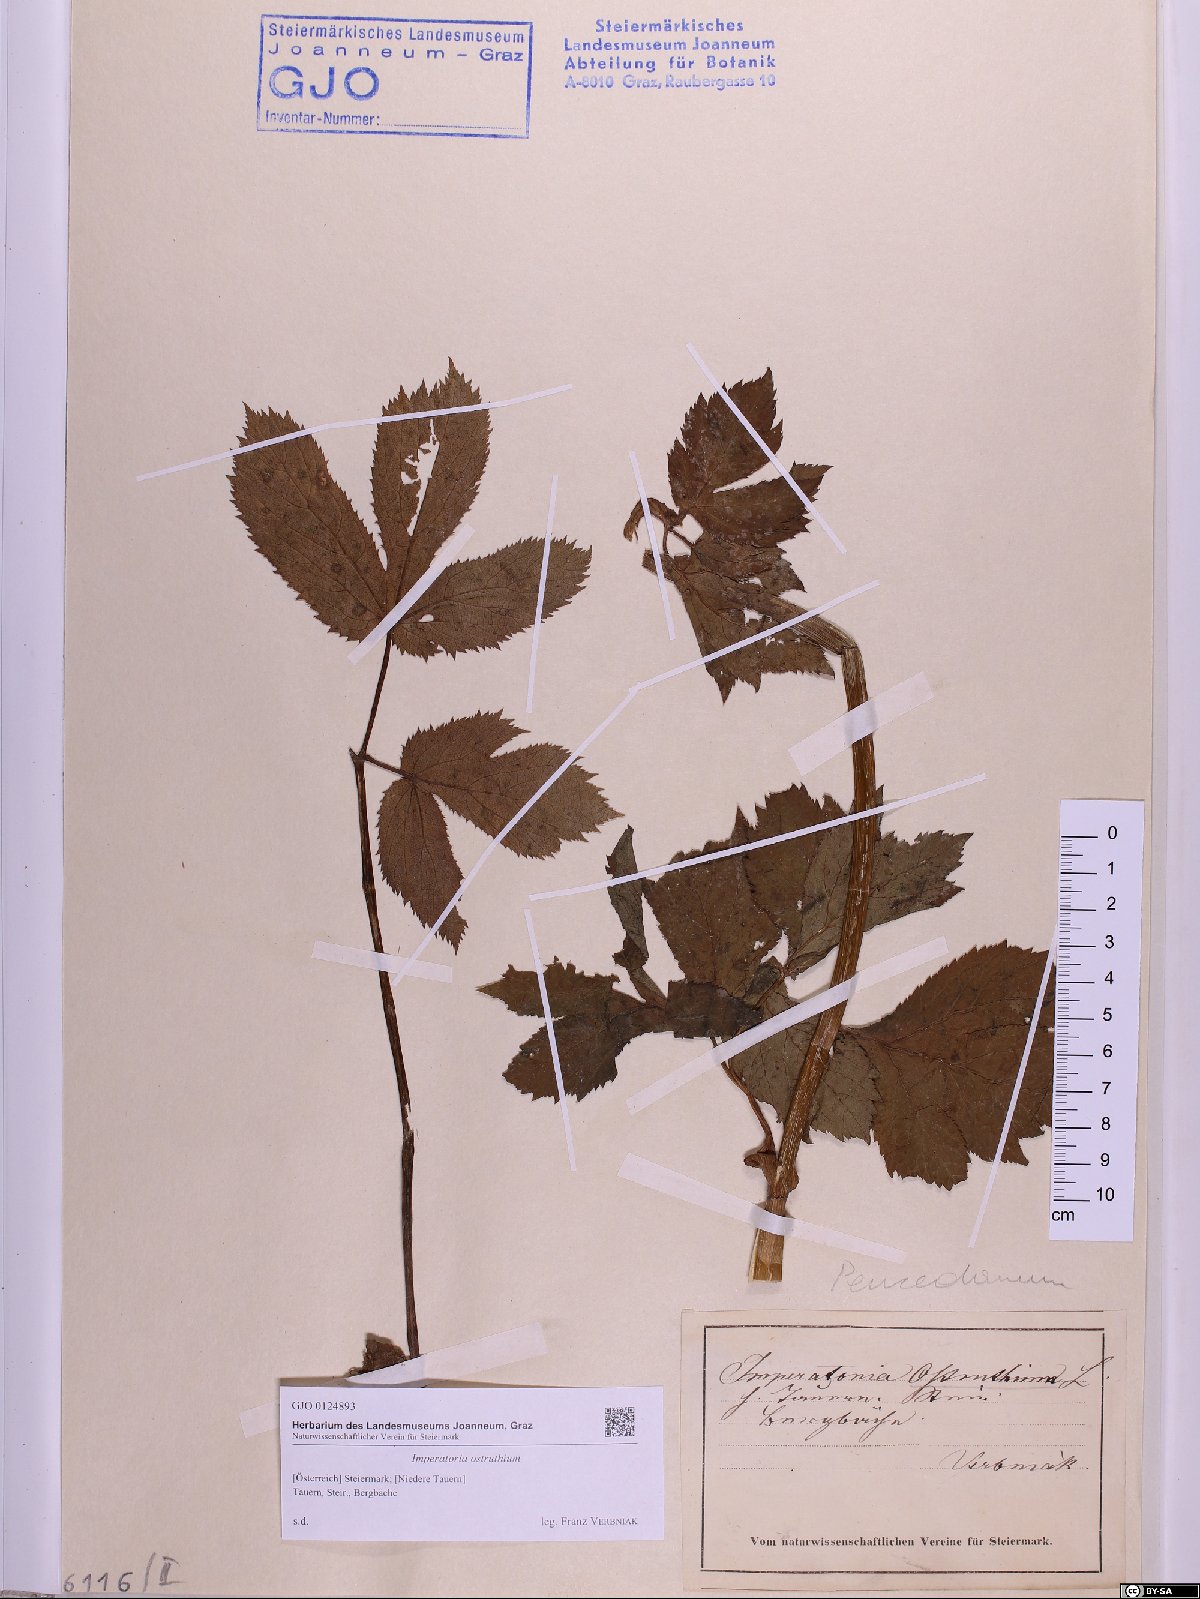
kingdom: Plantae
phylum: Tracheophyta
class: Magnoliopsida
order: Apiales
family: Apiaceae
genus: Imperatoria
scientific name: Imperatoria ostruthium
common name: Masterwort
